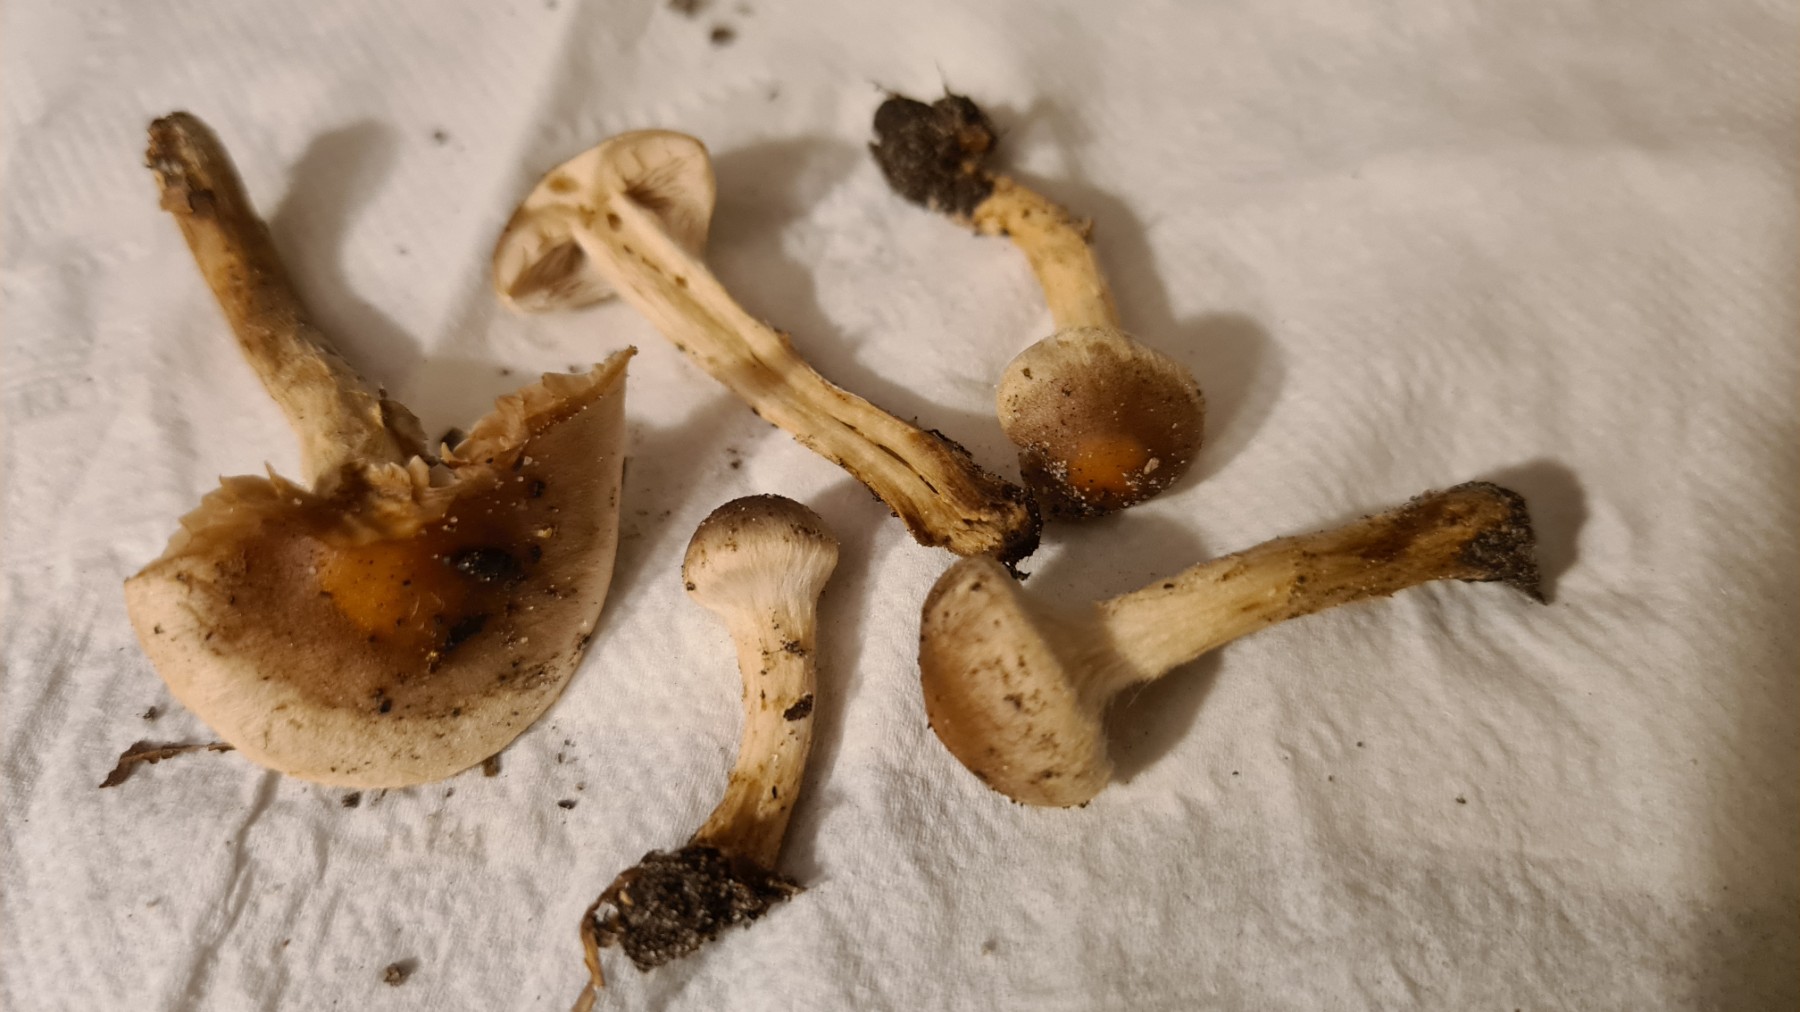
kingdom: Fungi
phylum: Basidiomycota
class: Agaricomycetes
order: Agaricales
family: Hymenogastraceae
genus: Hebeloma
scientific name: Hebeloma mesophaeum
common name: lerbrun tåreblad
